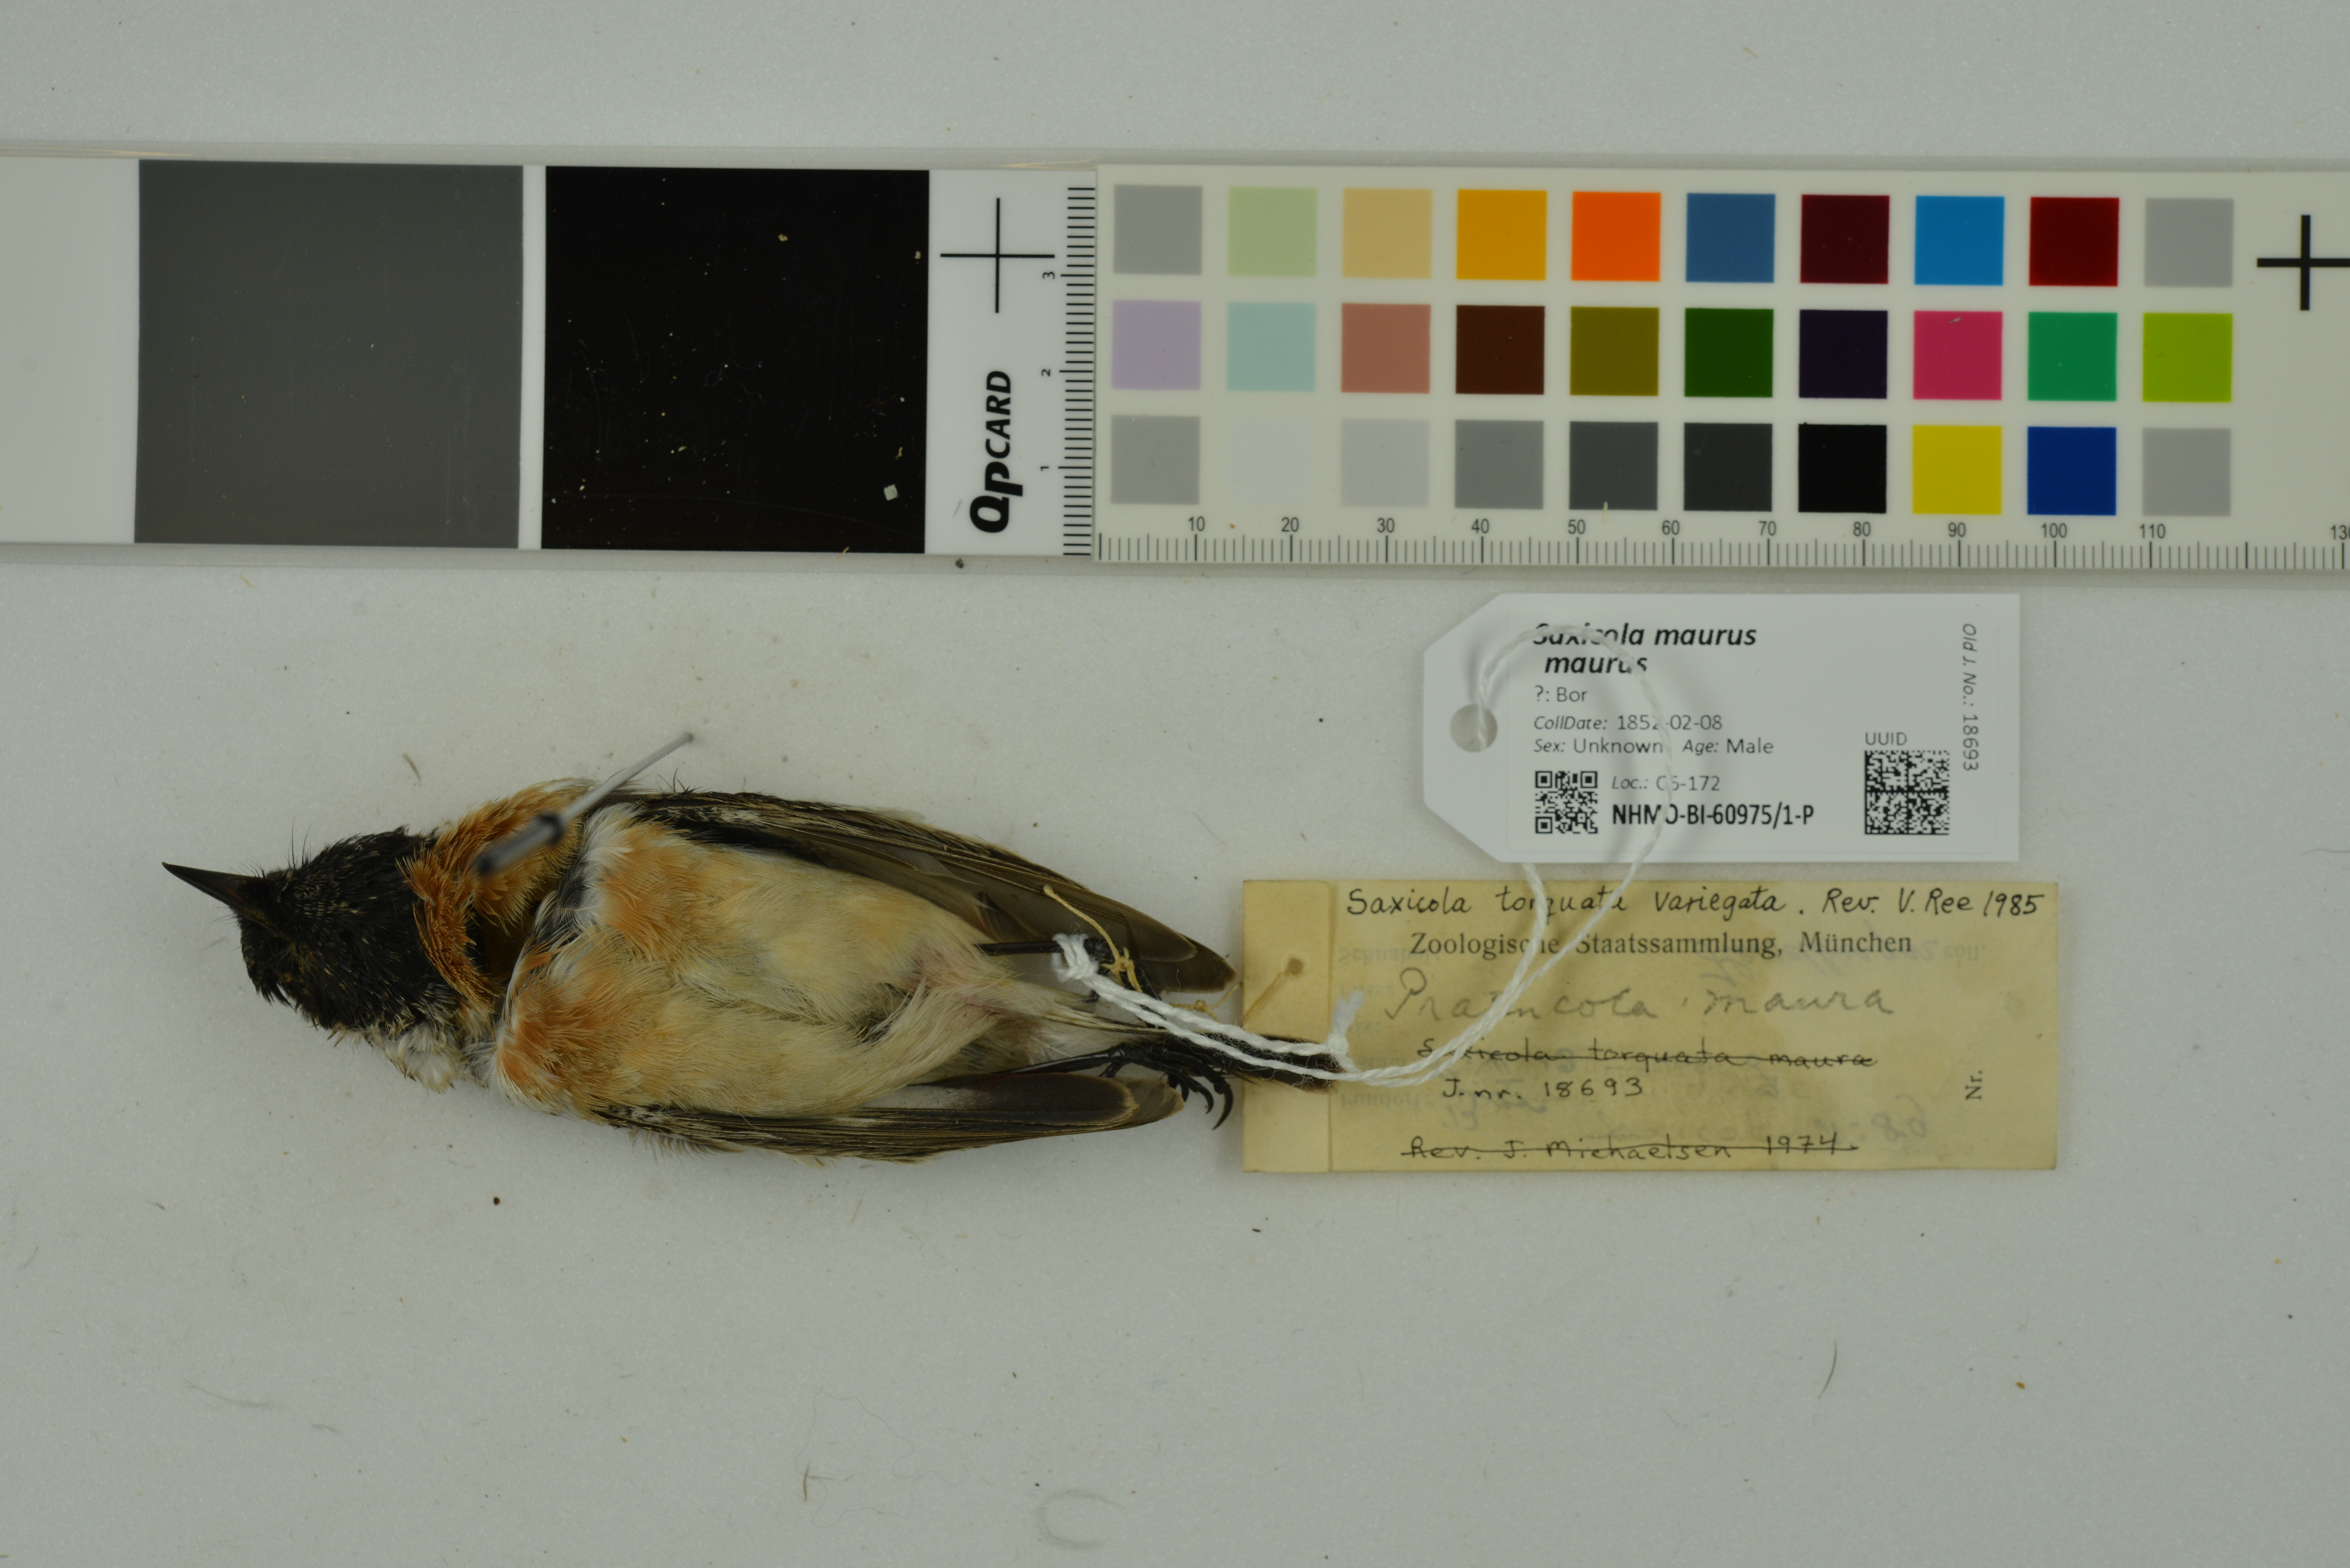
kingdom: Animalia
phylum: Chordata
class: Aves
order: Passeriformes
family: Muscicapidae
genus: Saxicola
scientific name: Saxicola maurus
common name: Siberian stonechat
